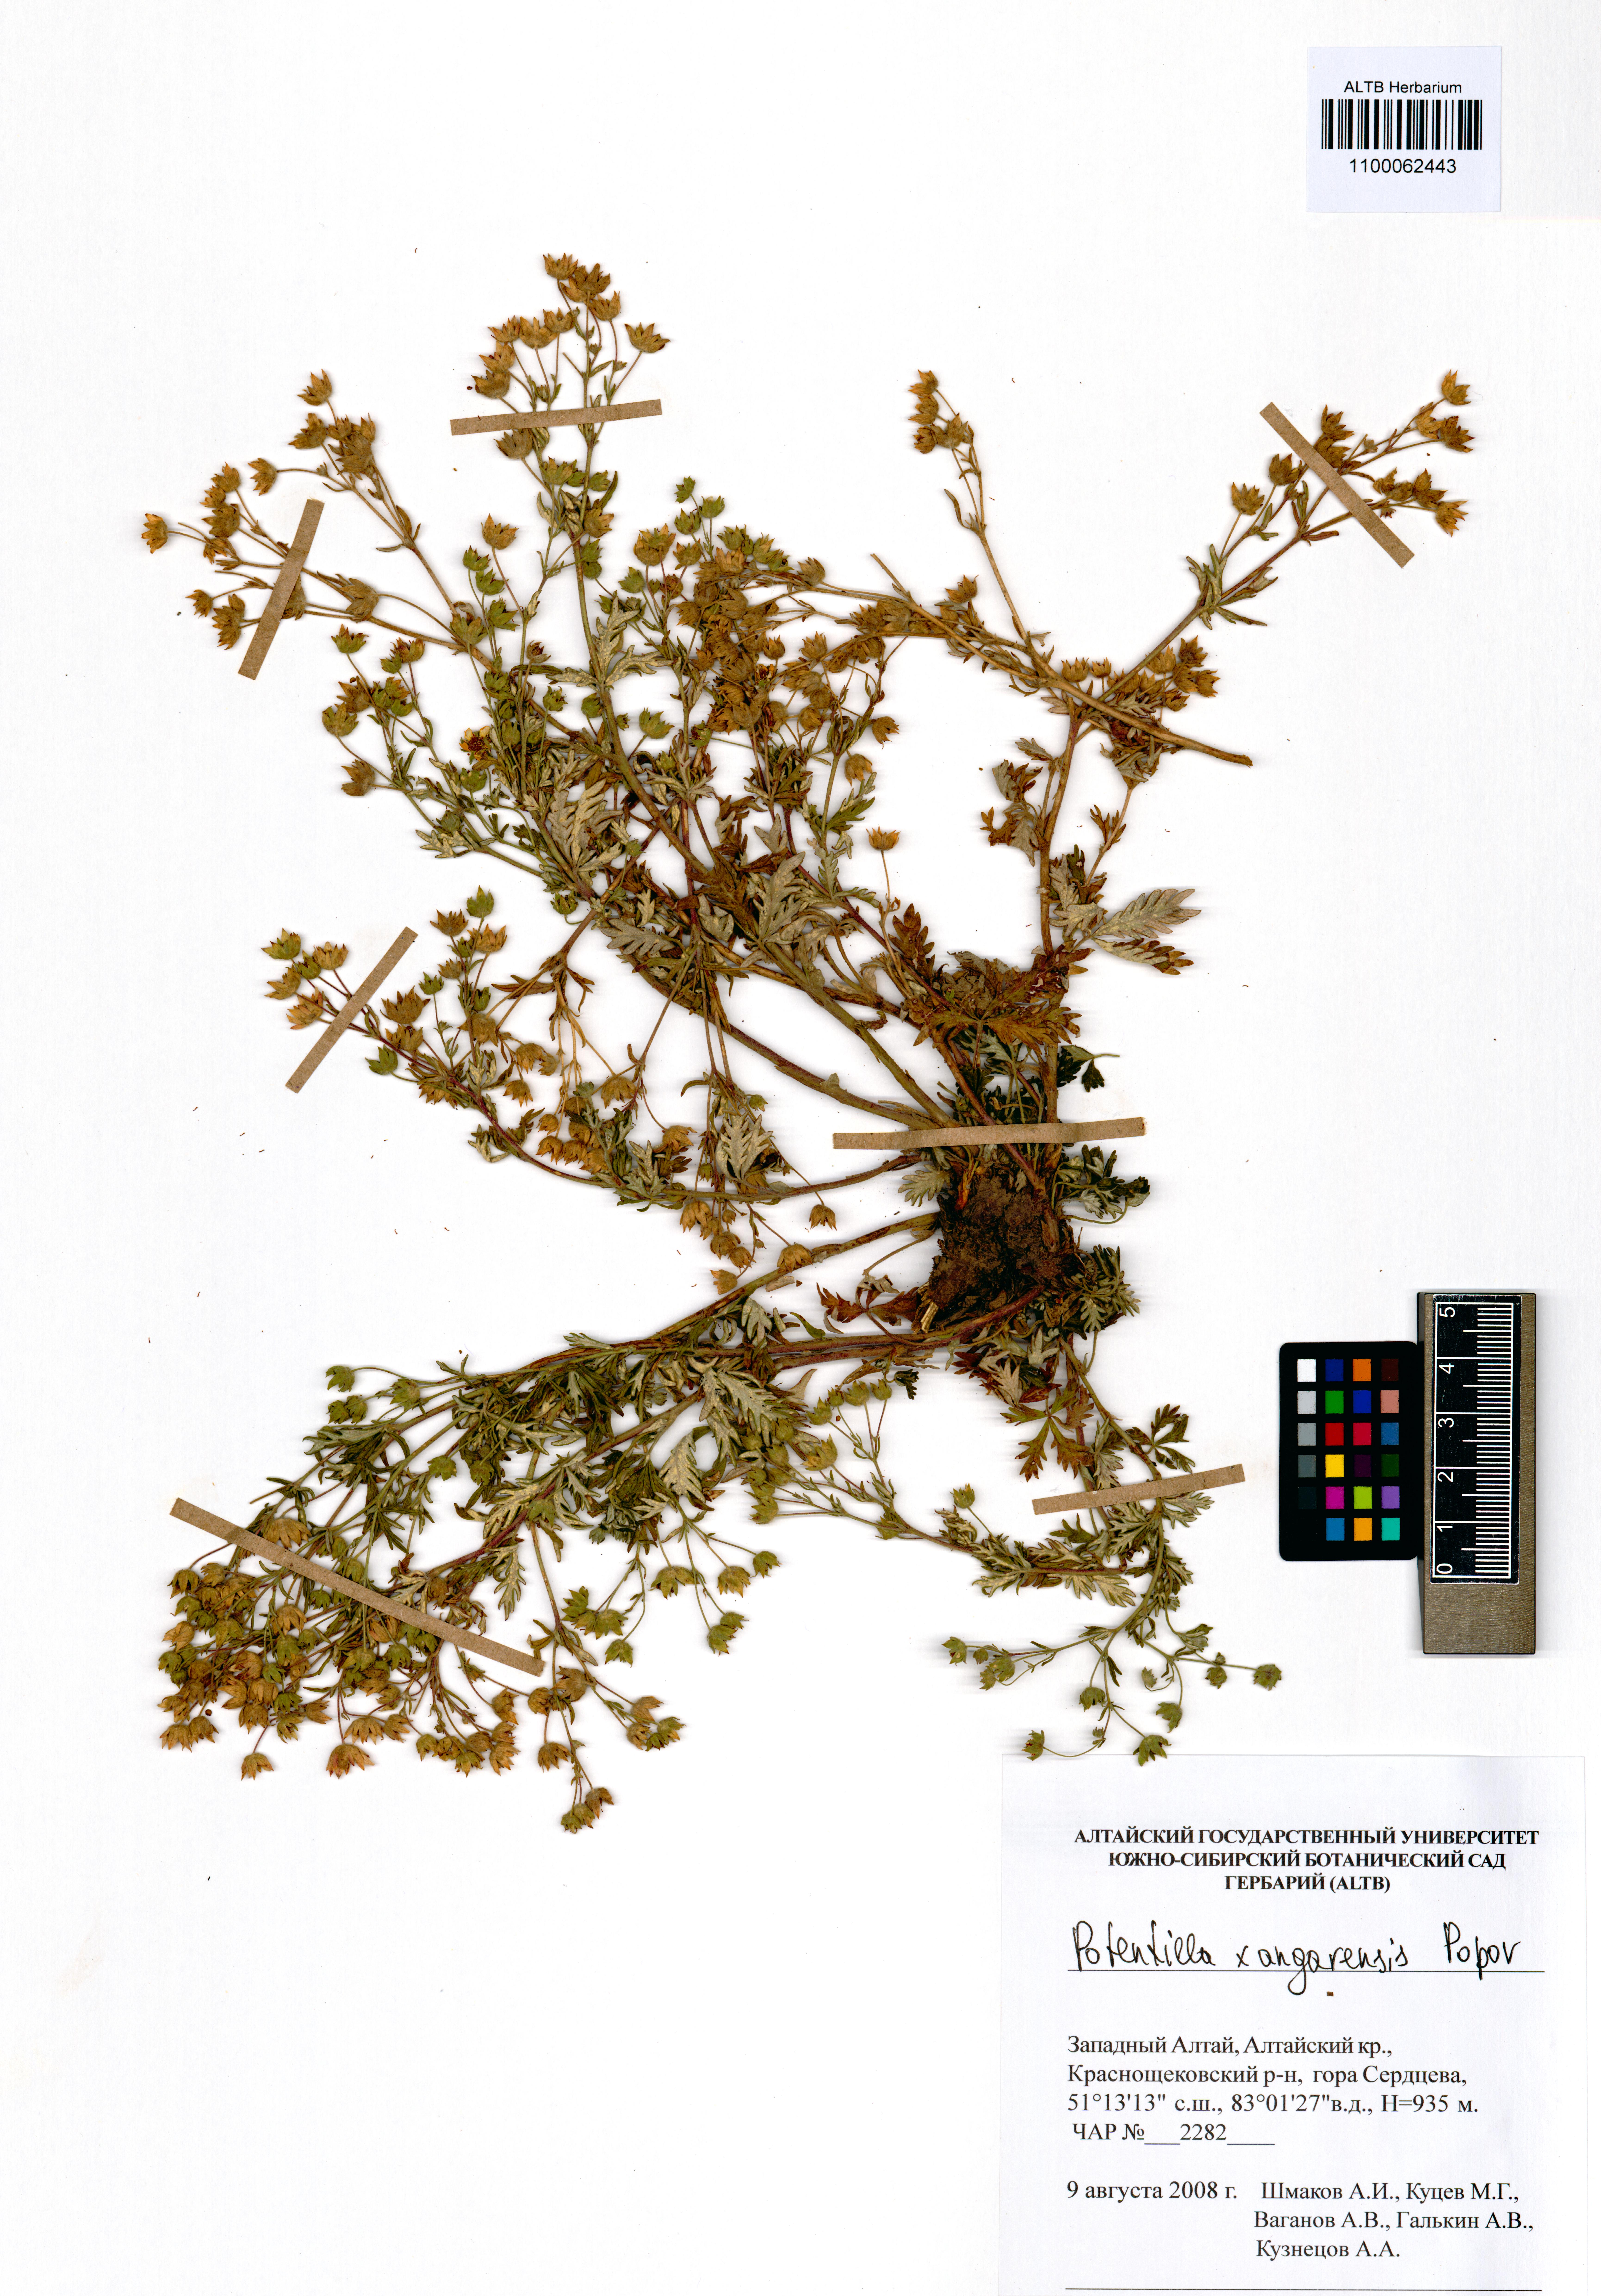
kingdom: Plantae
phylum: Tracheophyta
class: Magnoliopsida
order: Rosales
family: Rosaceae
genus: Potentilla
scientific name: Potentilla angarensis
